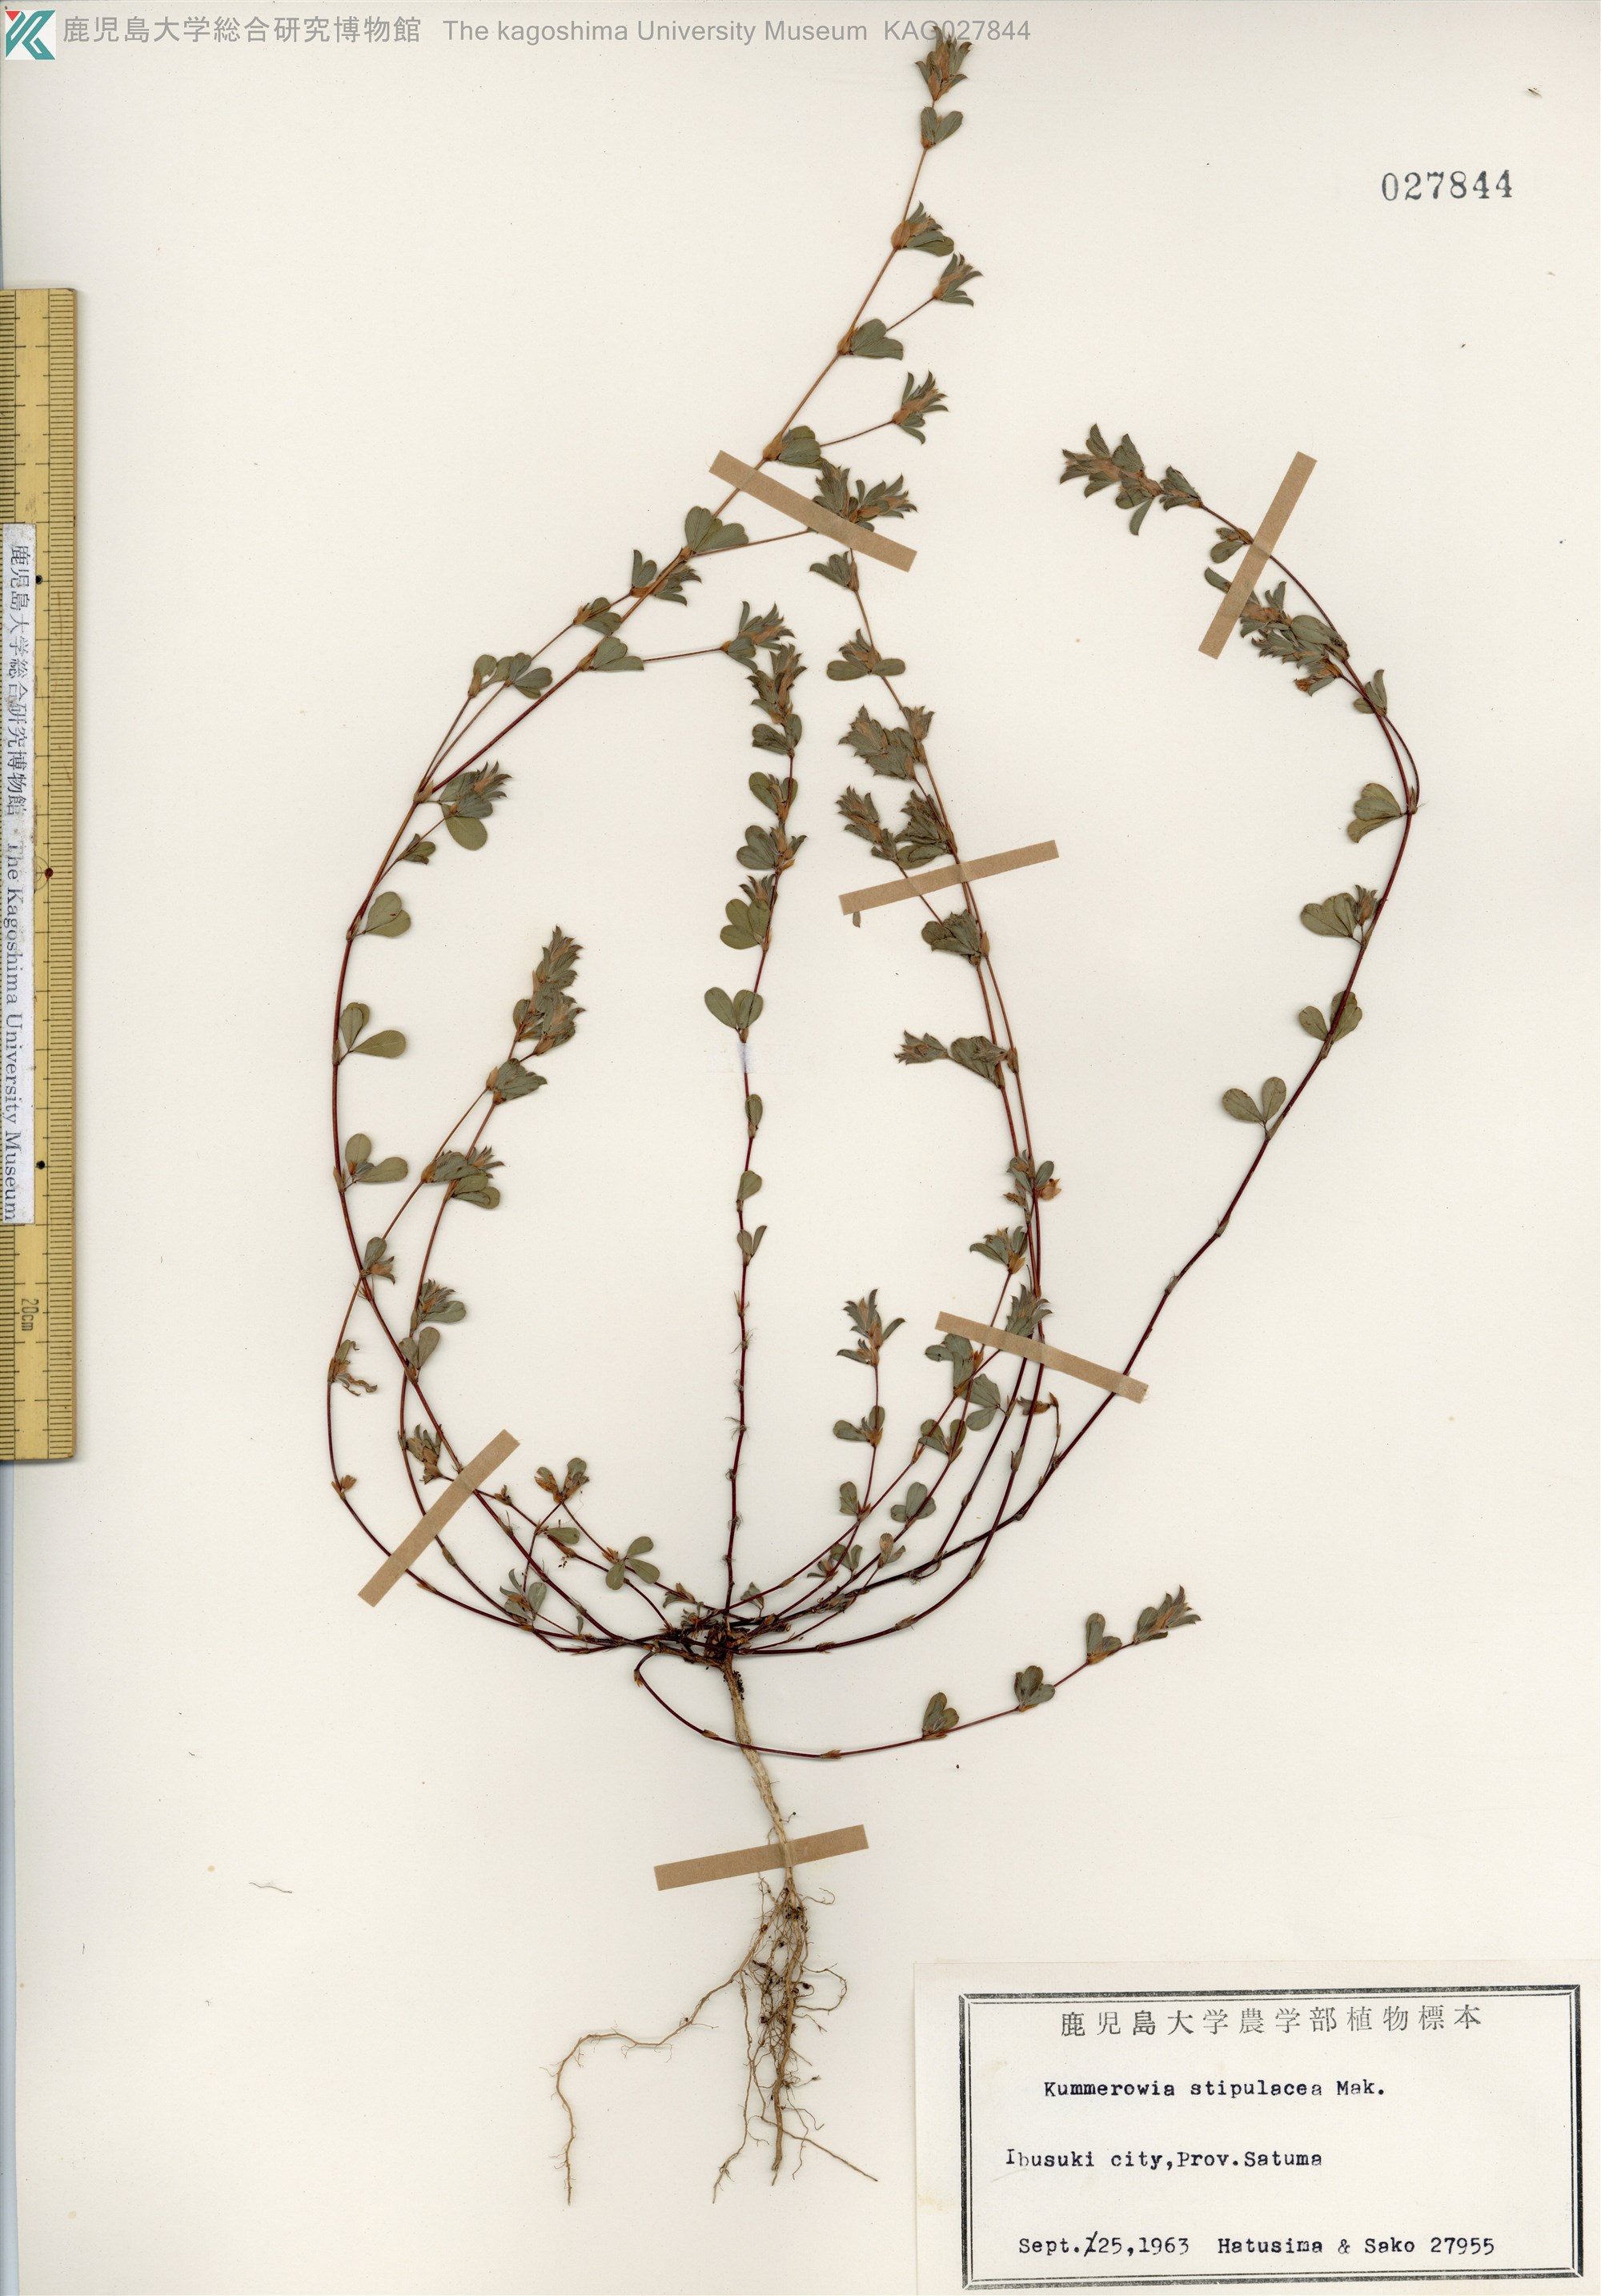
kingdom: Plantae
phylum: Tracheophyta
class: Magnoliopsida
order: Fabales
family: Fabaceae
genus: Kummerowia
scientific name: Kummerowia stipulacea
